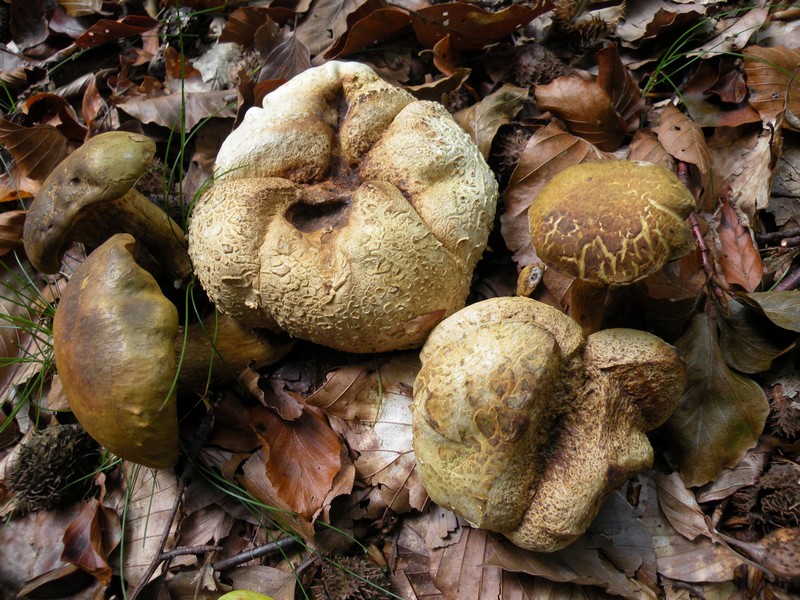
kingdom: Fungi
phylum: Basidiomycota
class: Agaricomycetes
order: Boletales
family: Boletaceae
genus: Pseudoboletus
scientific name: Pseudoboletus parasiticus
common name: snyltende rørhat
